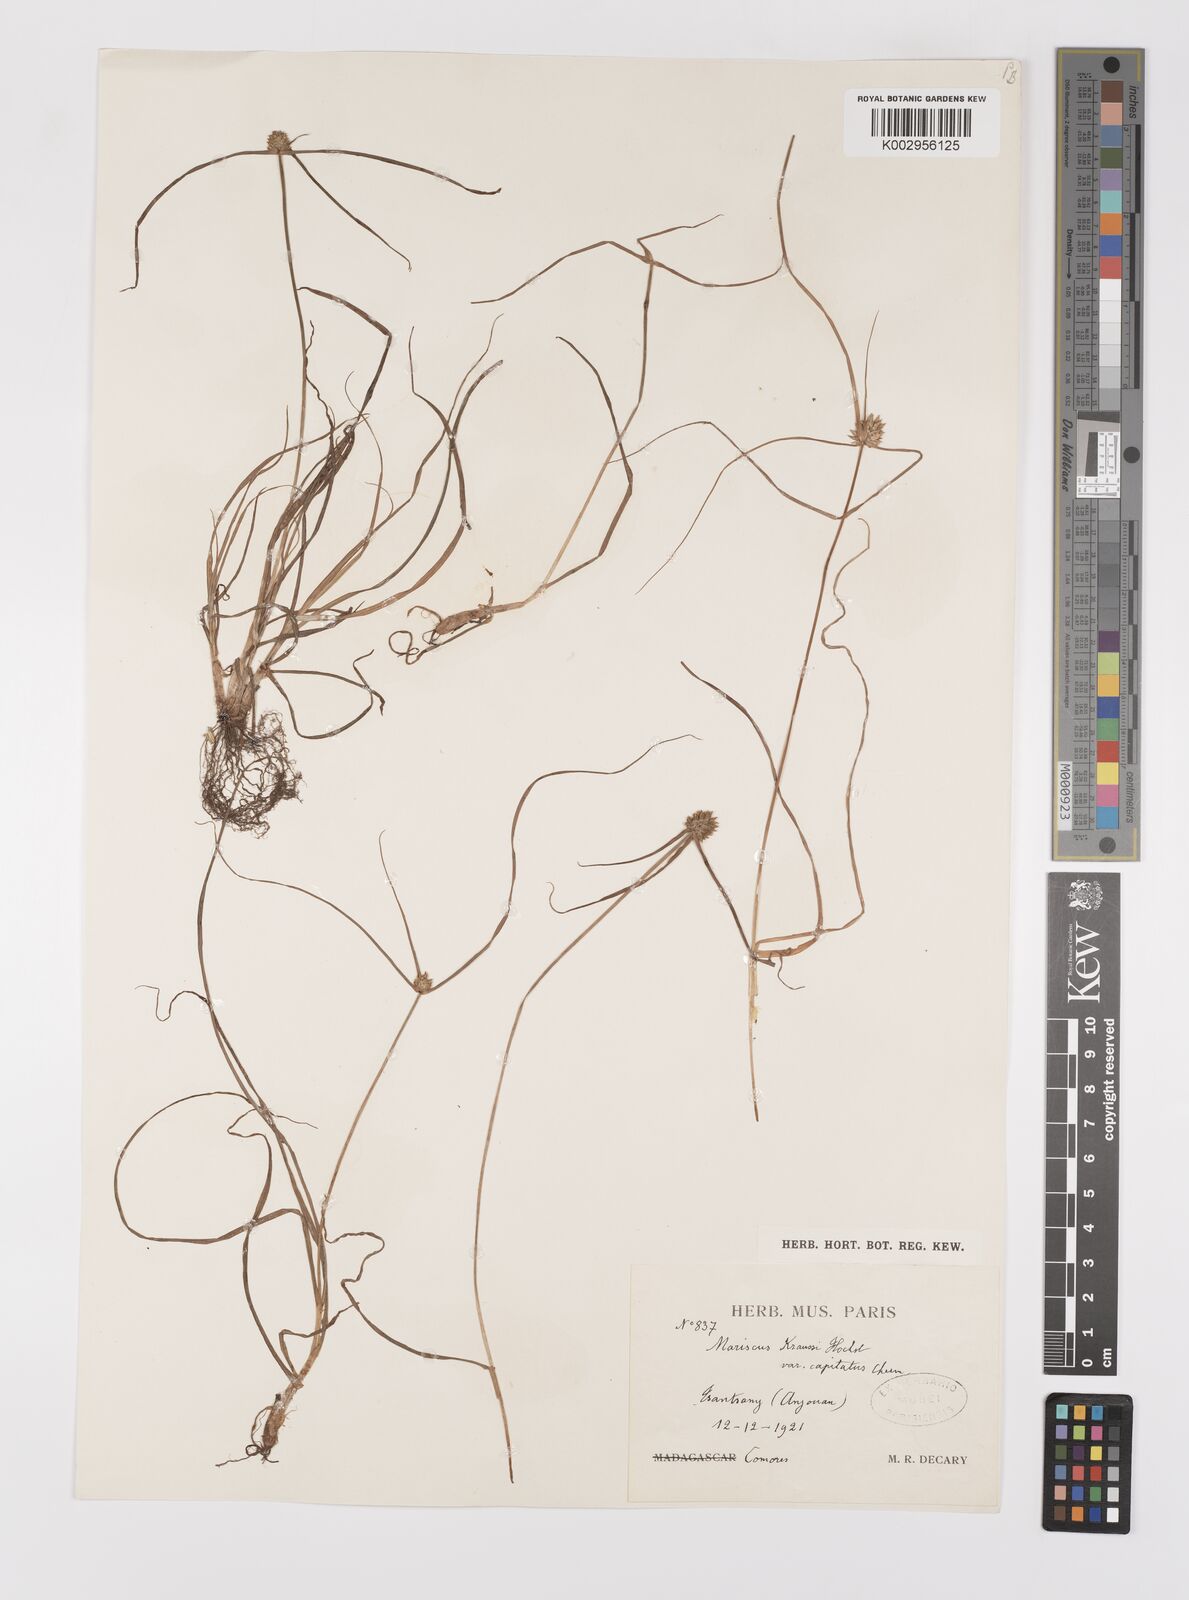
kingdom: Plantae
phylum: Tracheophyta
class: Liliopsida
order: Poales
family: Cyperaceae
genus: Cyperus
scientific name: Cyperus dubius
